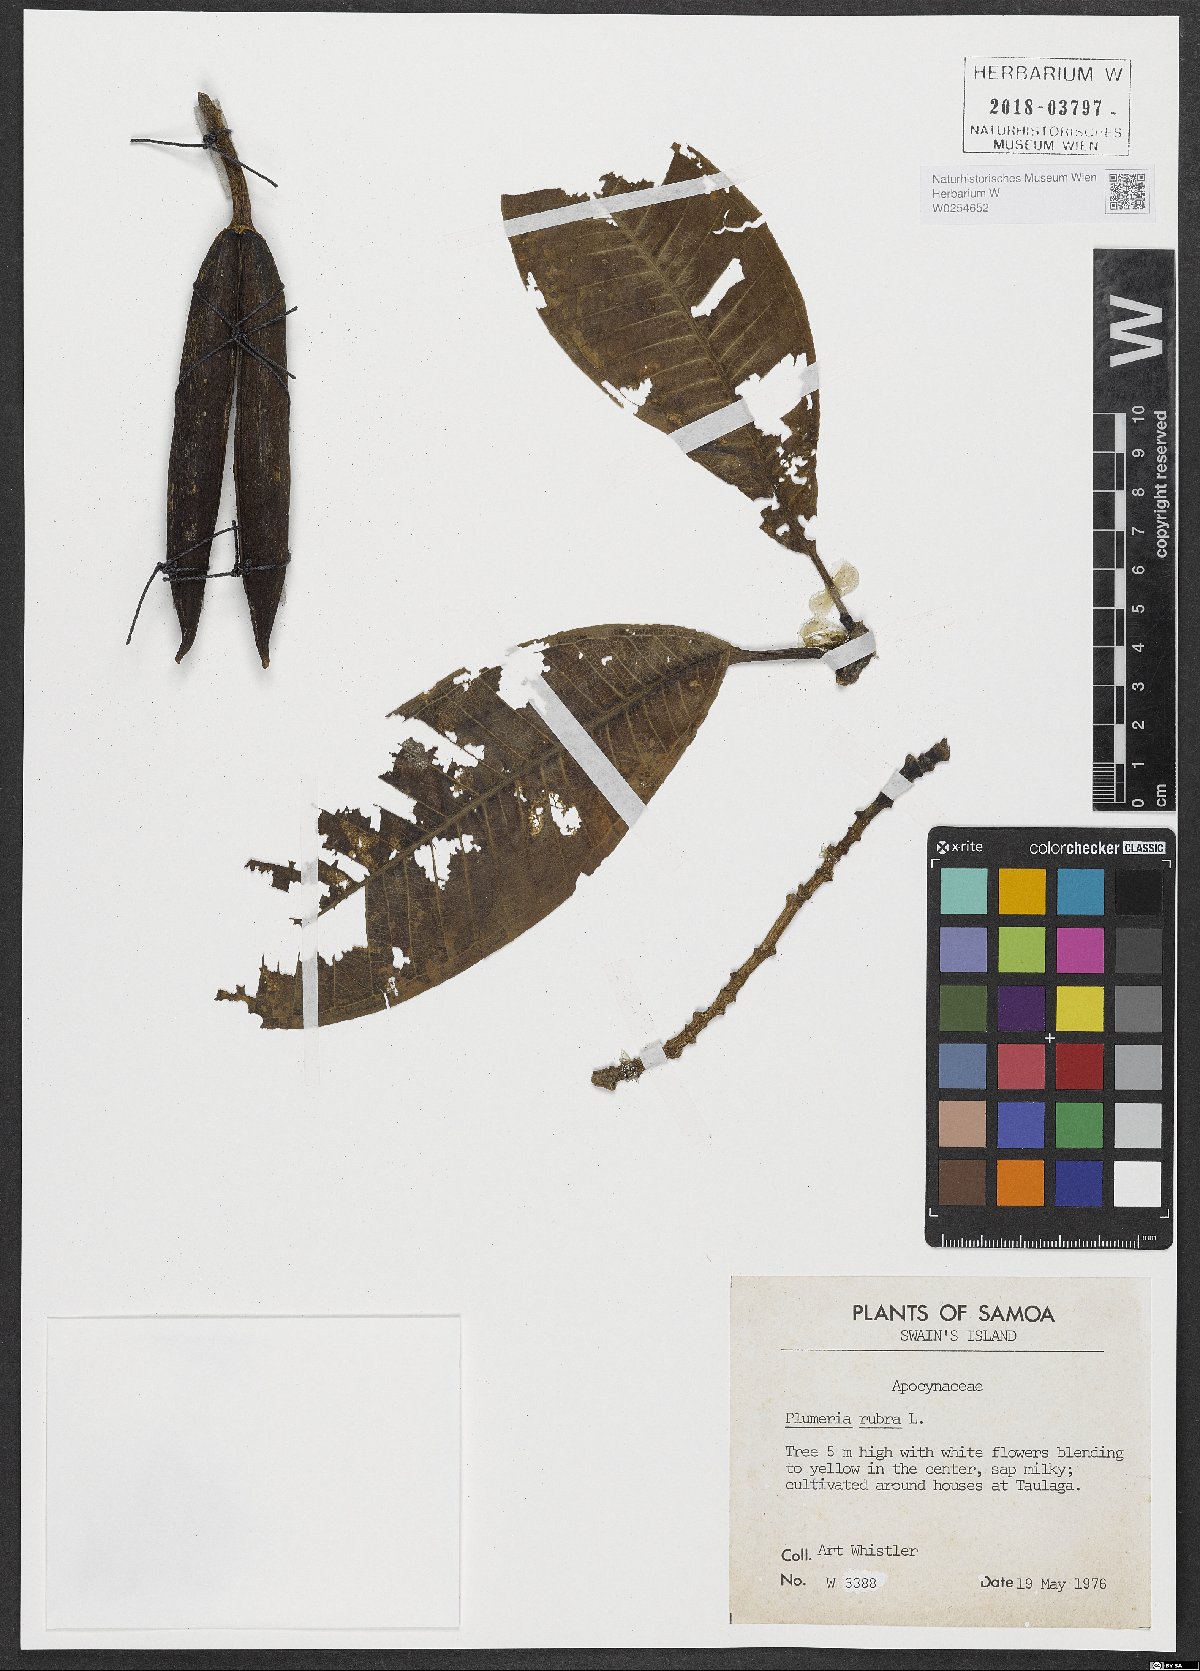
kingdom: Plantae
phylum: Tracheophyta
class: Magnoliopsida
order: Gentianales
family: Apocynaceae
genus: Plumeria
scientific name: Plumeria rubra
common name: Pagoda-tree
